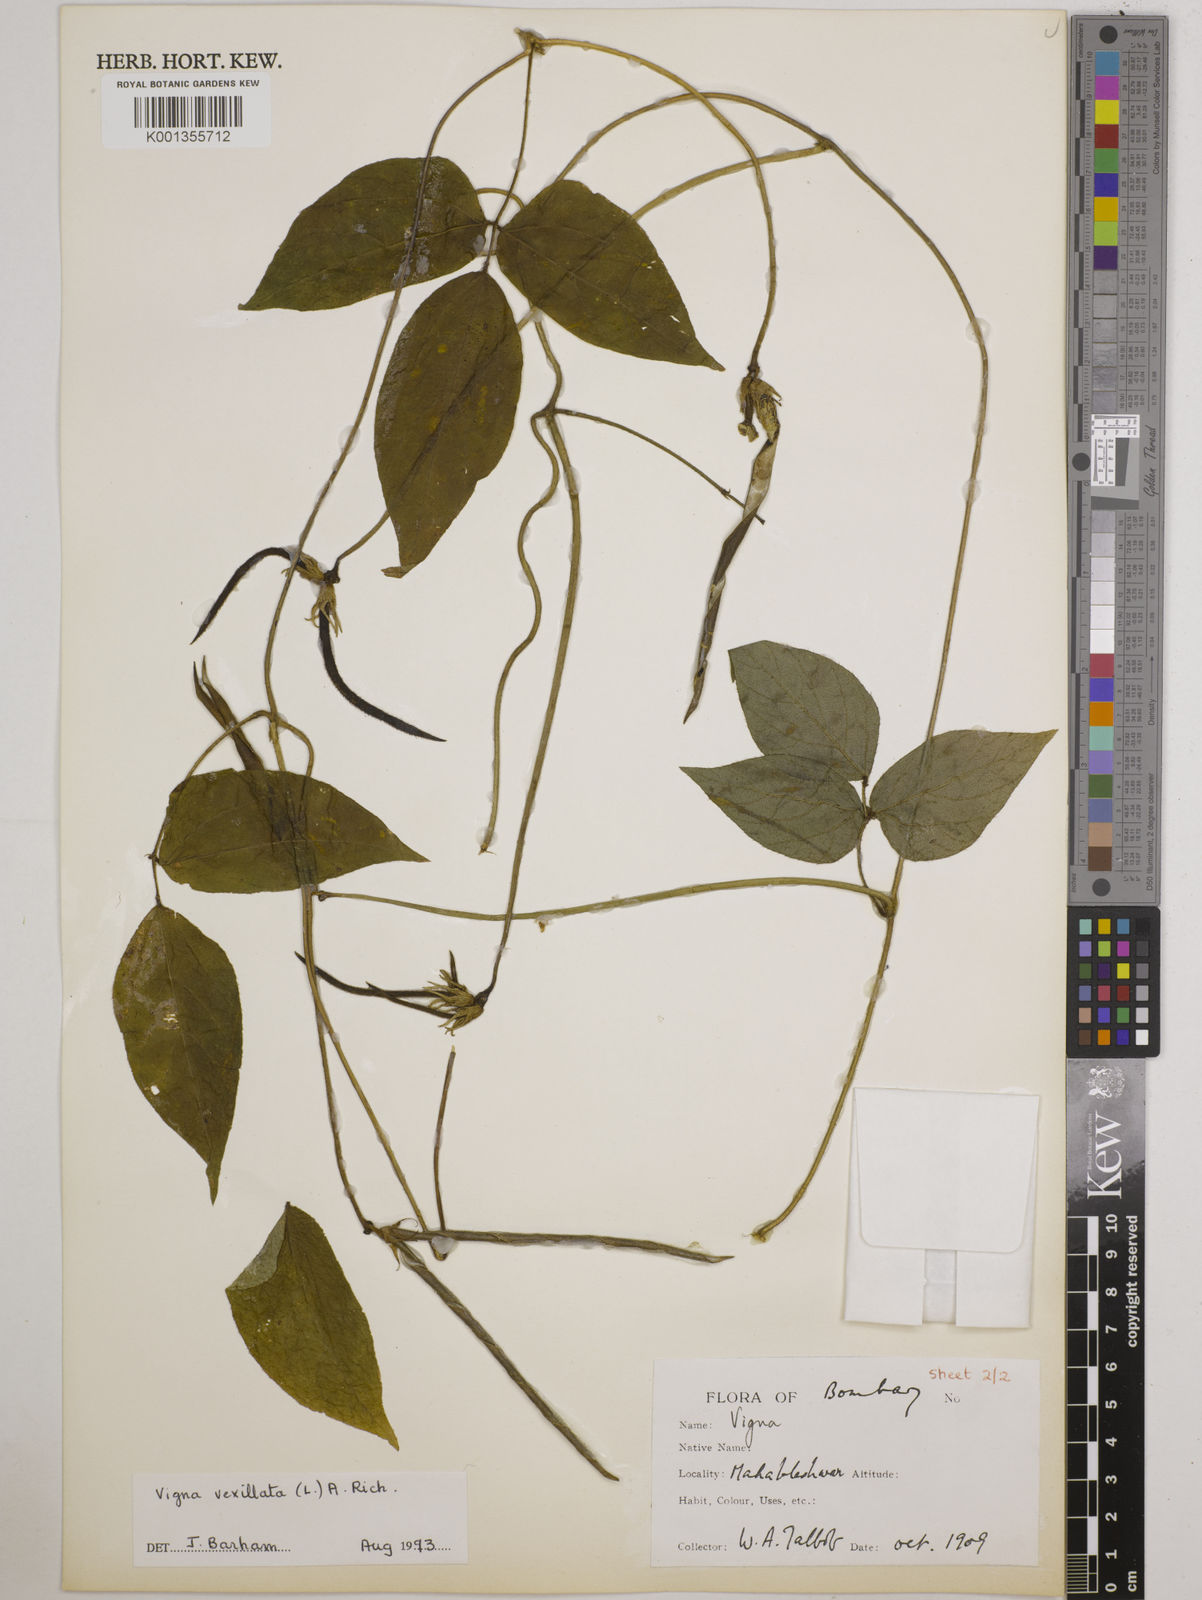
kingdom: Plantae
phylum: Tracheophyta
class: Magnoliopsida
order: Fabales
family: Fabaceae
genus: Vigna
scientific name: Vigna vexillata
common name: Zombi pea
